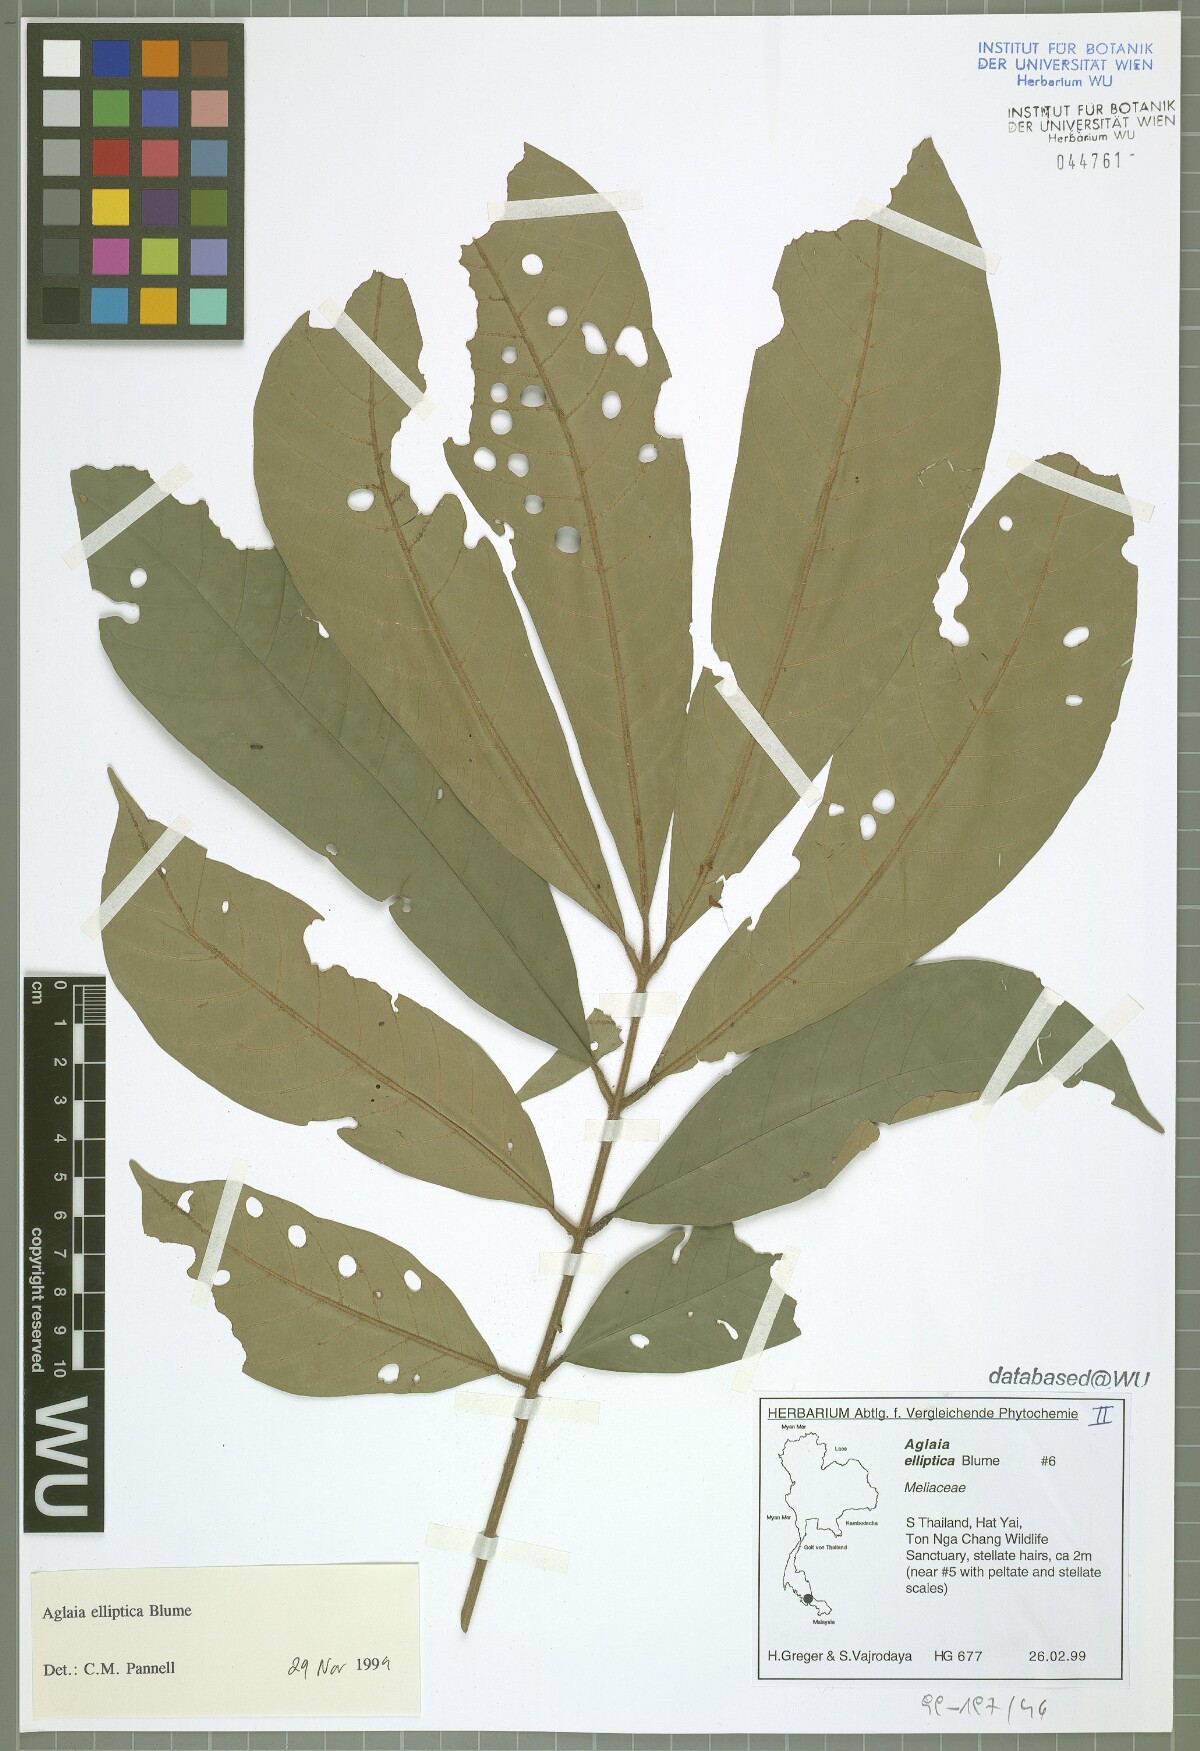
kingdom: Plantae
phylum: Tracheophyta
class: Magnoliopsida
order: Sapindales
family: Meliaceae
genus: Aglaia
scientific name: Aglaia elliptica
